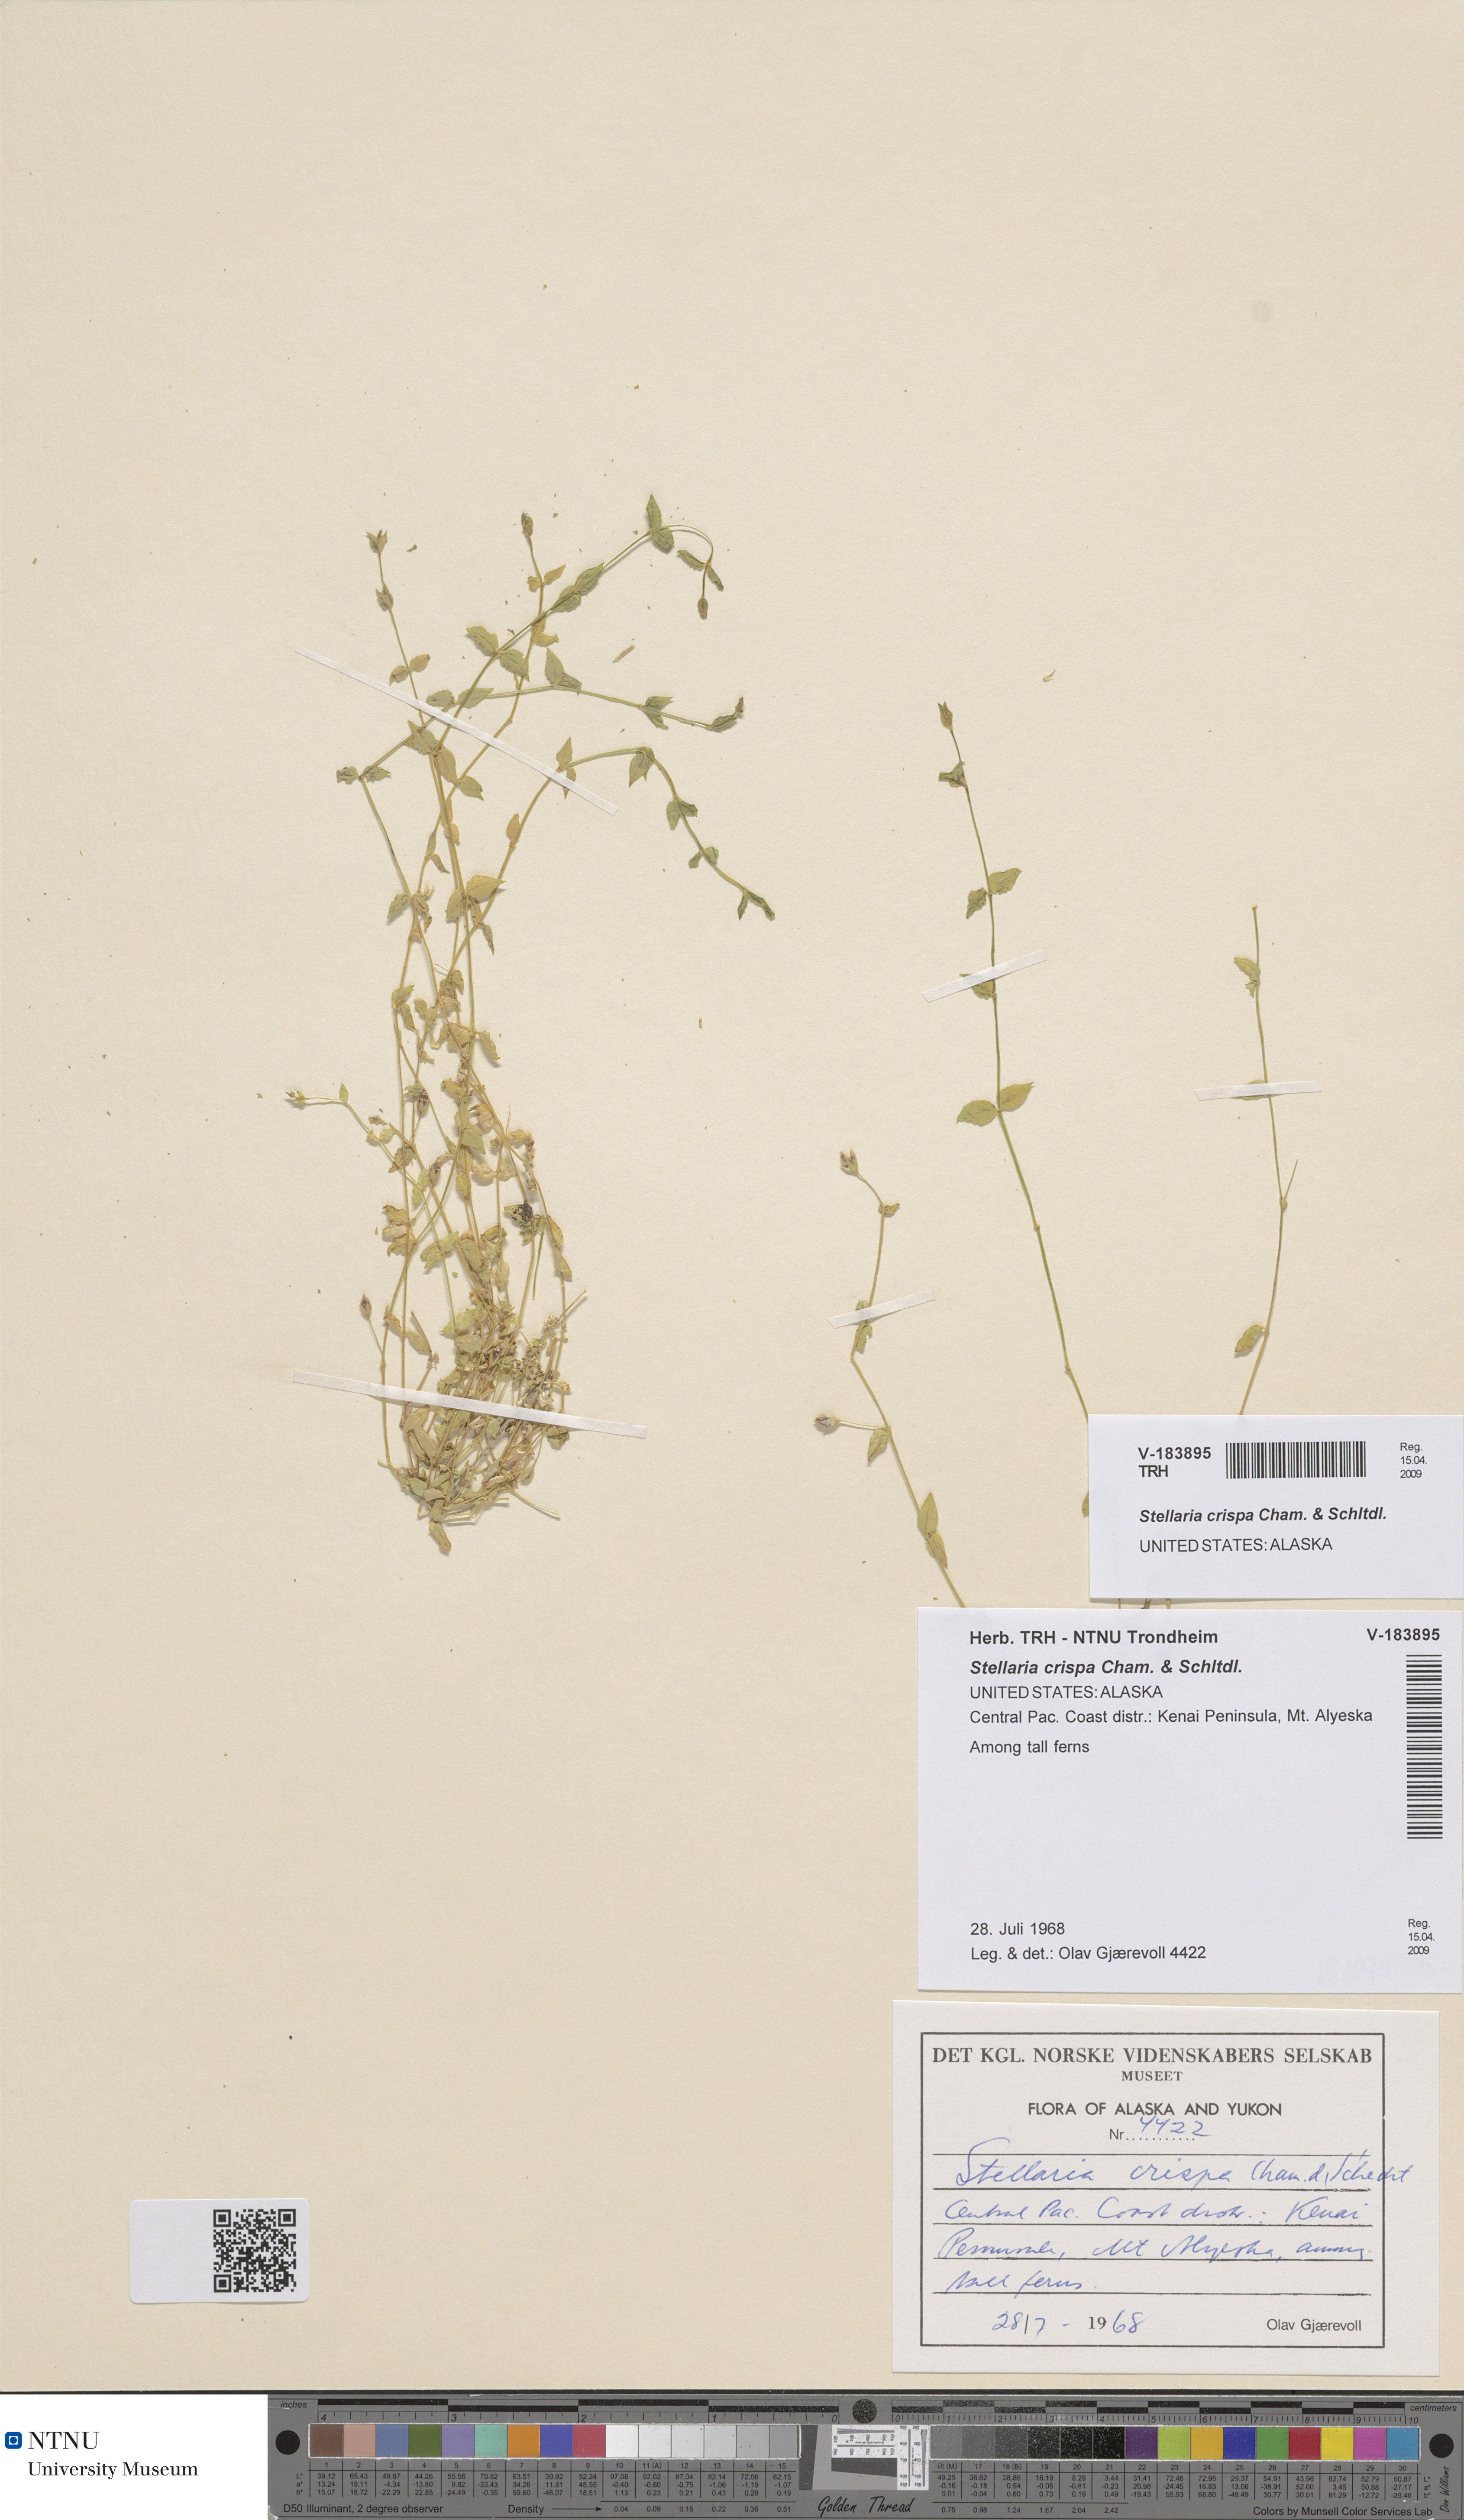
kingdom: Plantae
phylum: Tracheophyta
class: Magnoliopsida
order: Caryophyllales
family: Caryophyllaceae
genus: Stellaria
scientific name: Stellaria crispa
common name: Crimped stitchwort
